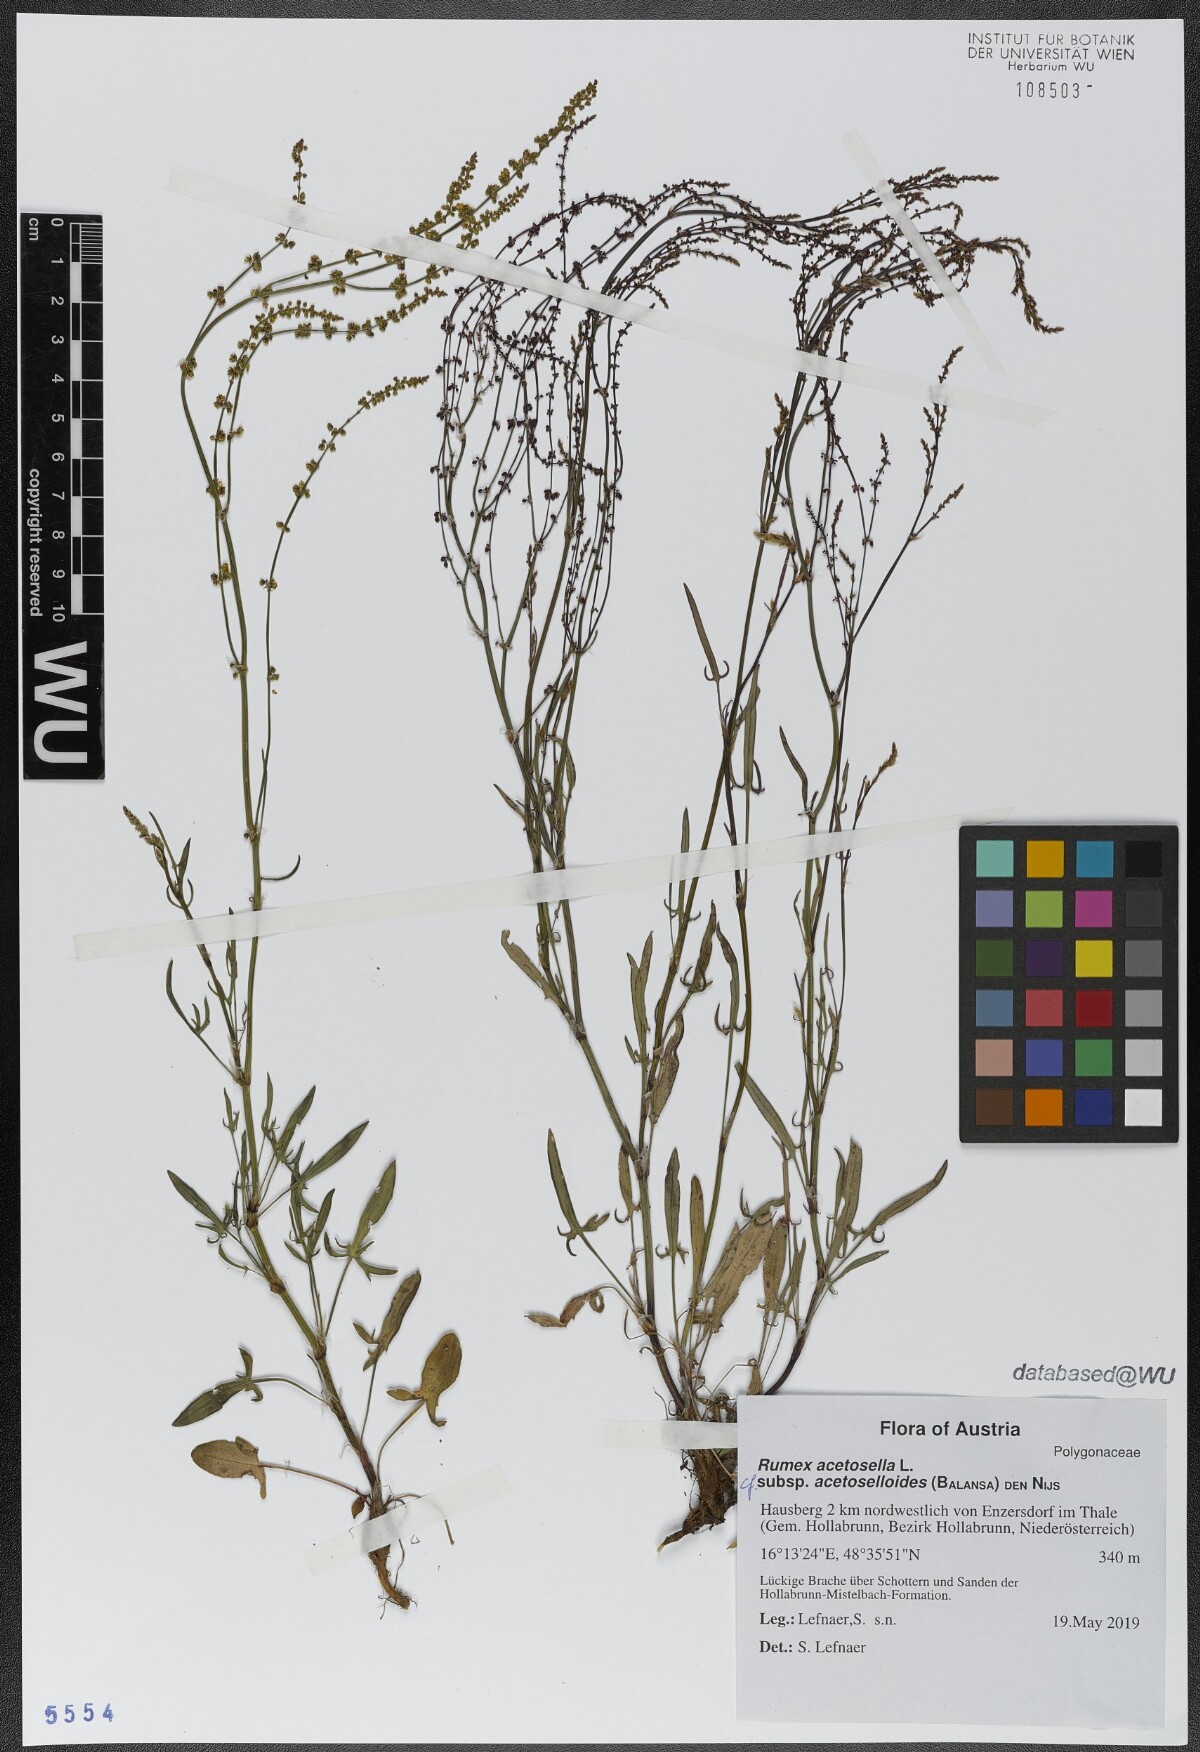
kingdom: Plantae
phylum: Tracheophyta
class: Magnoliopsida
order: Caryophyllales
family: Polygonaceae
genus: Rumex
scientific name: Rumex acetosella
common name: Common sheep sorrel
